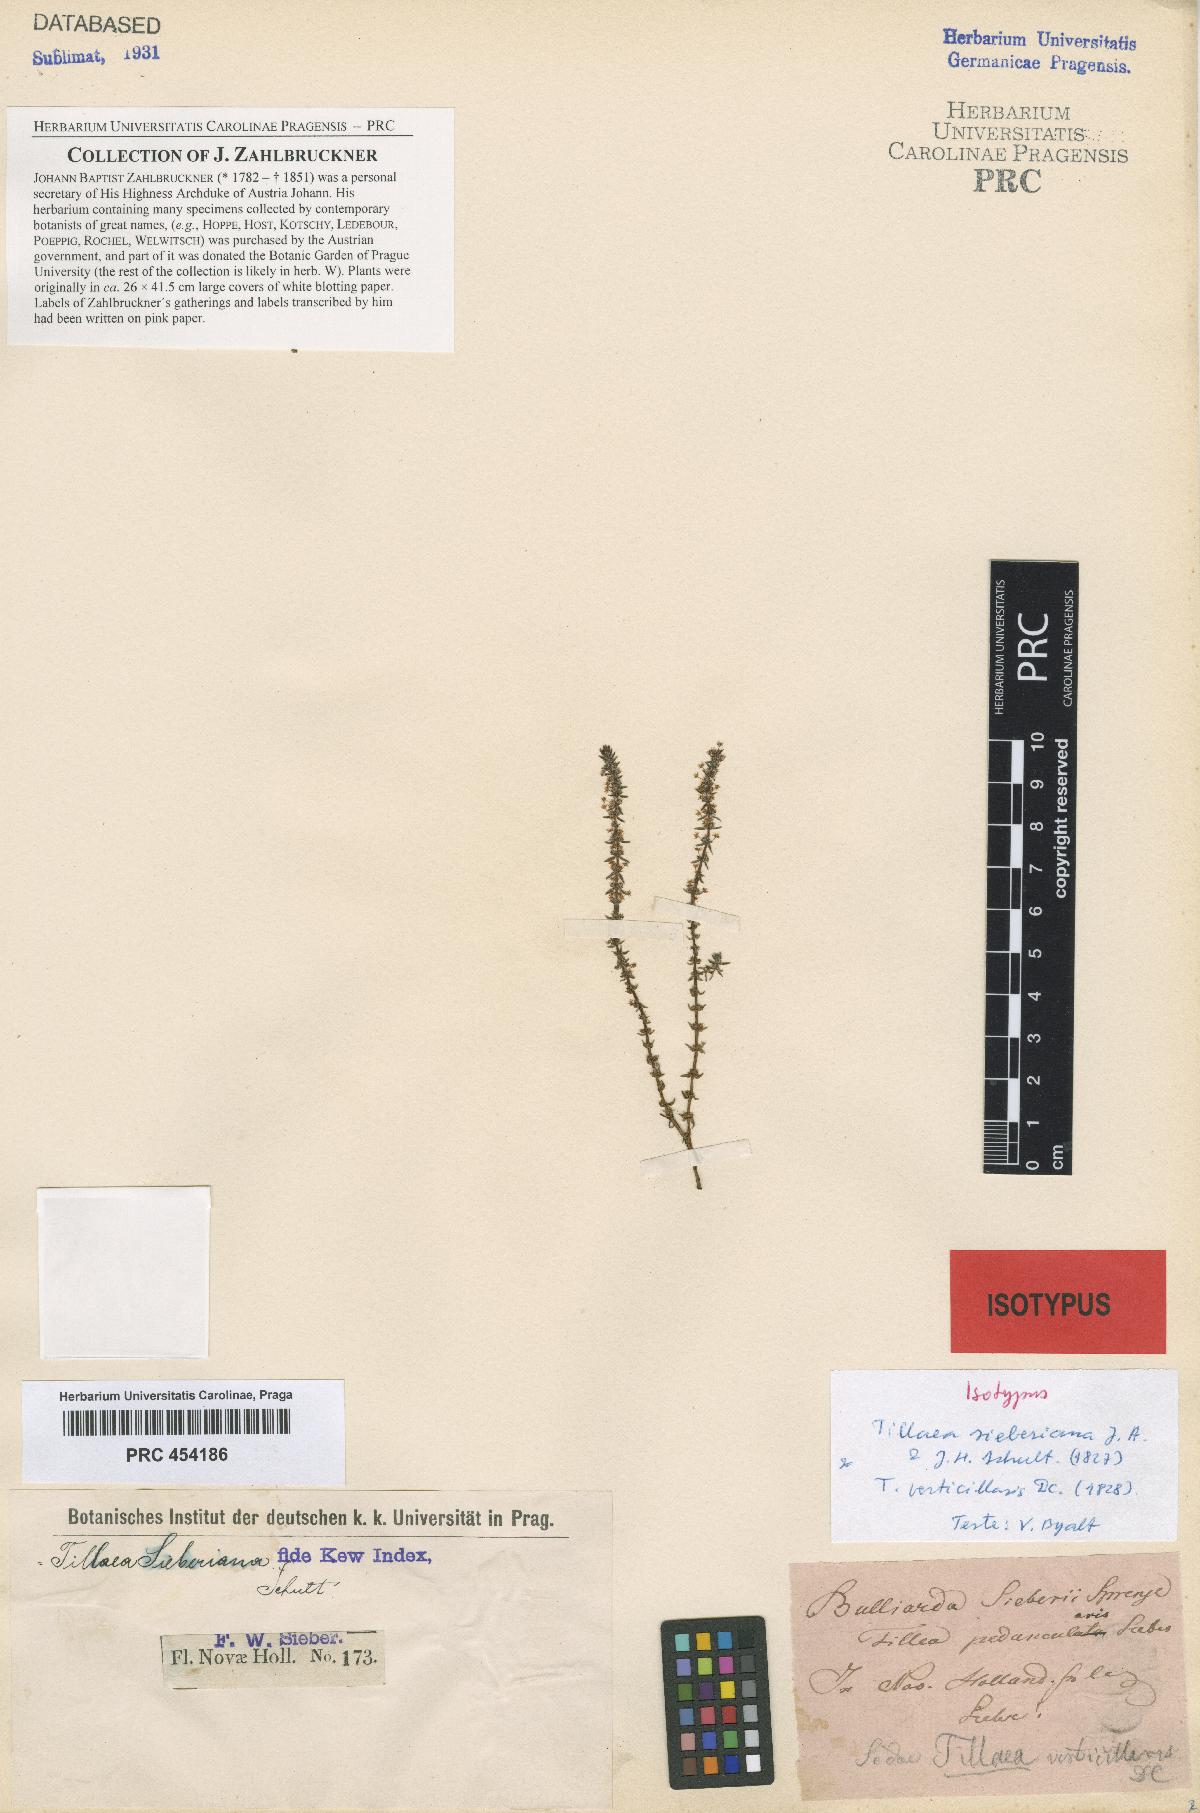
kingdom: Plantae
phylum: Tracheophyta
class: Magnoliopsida
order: Saxifragales
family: Crassulaceae
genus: Crassula
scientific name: Crassula sieberiana
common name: Siberian pygmyweed
